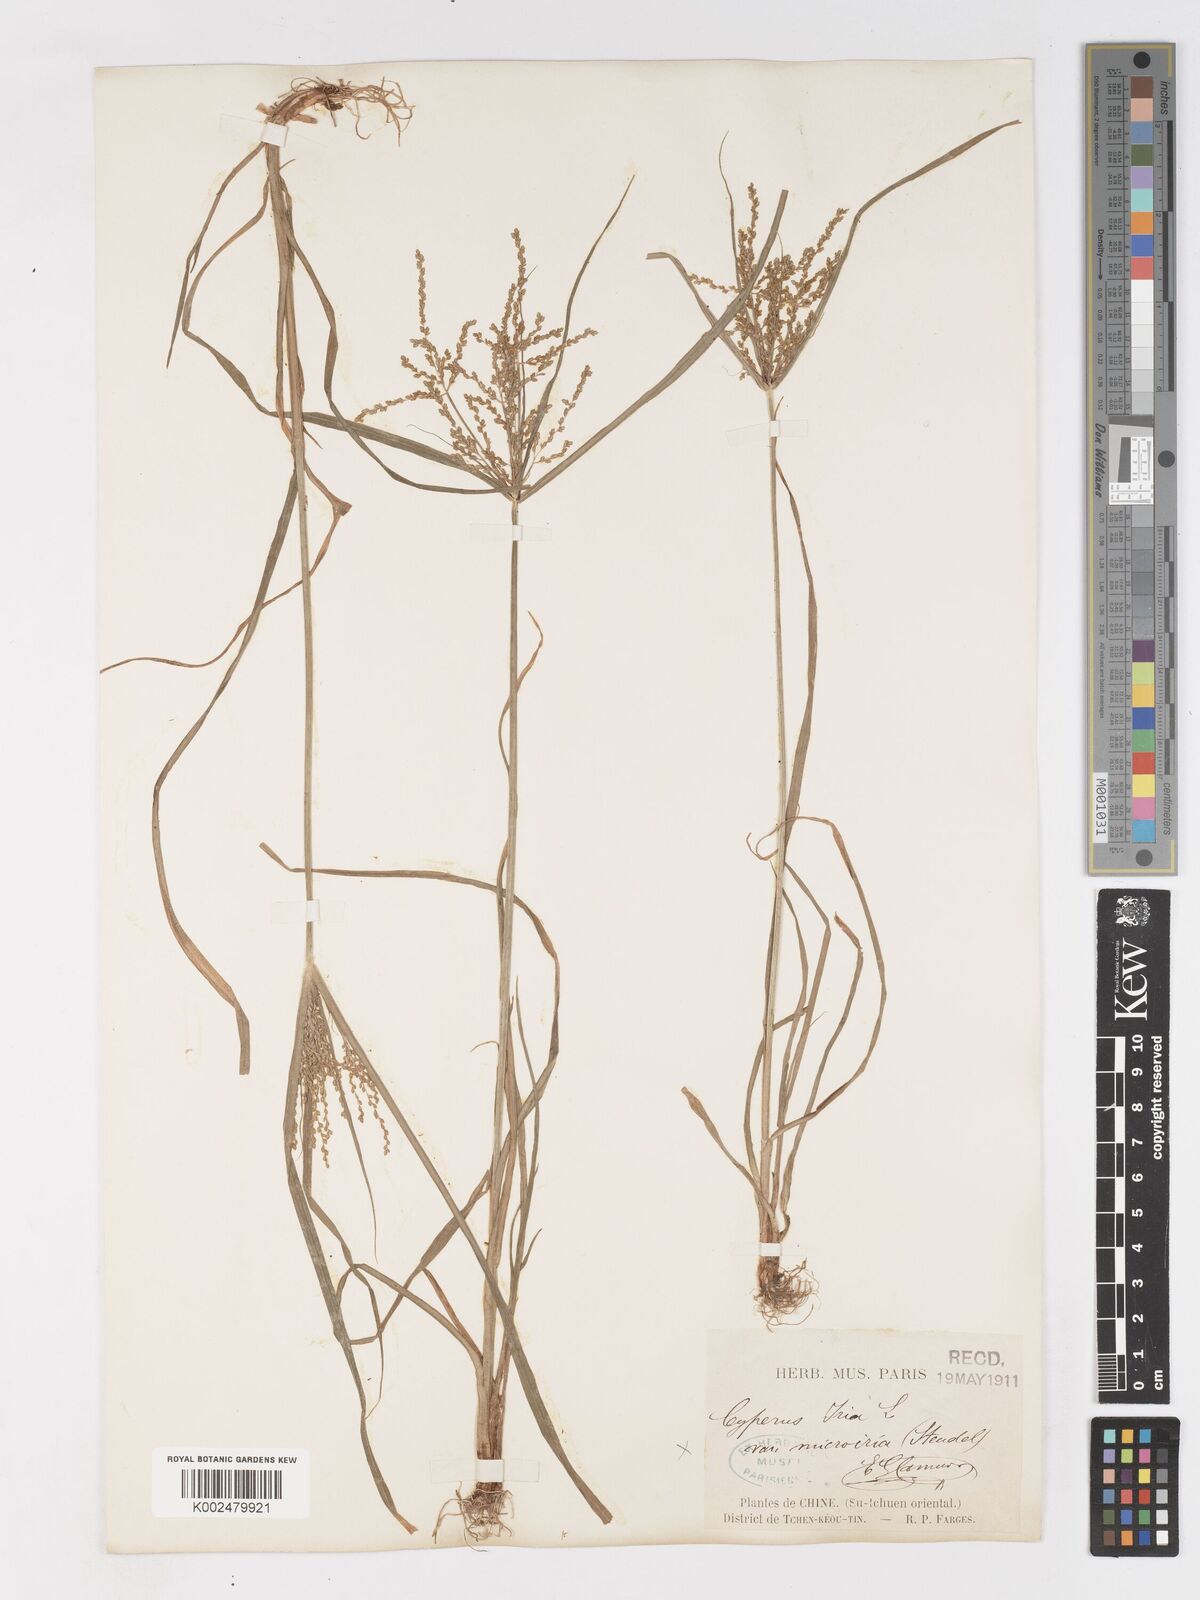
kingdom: Plantae
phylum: Tracheophyta
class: Liliopsida
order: Poales
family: Cyperaceae
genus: Cyperus
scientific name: Cyperus iria
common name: Ricefield flatsedge
